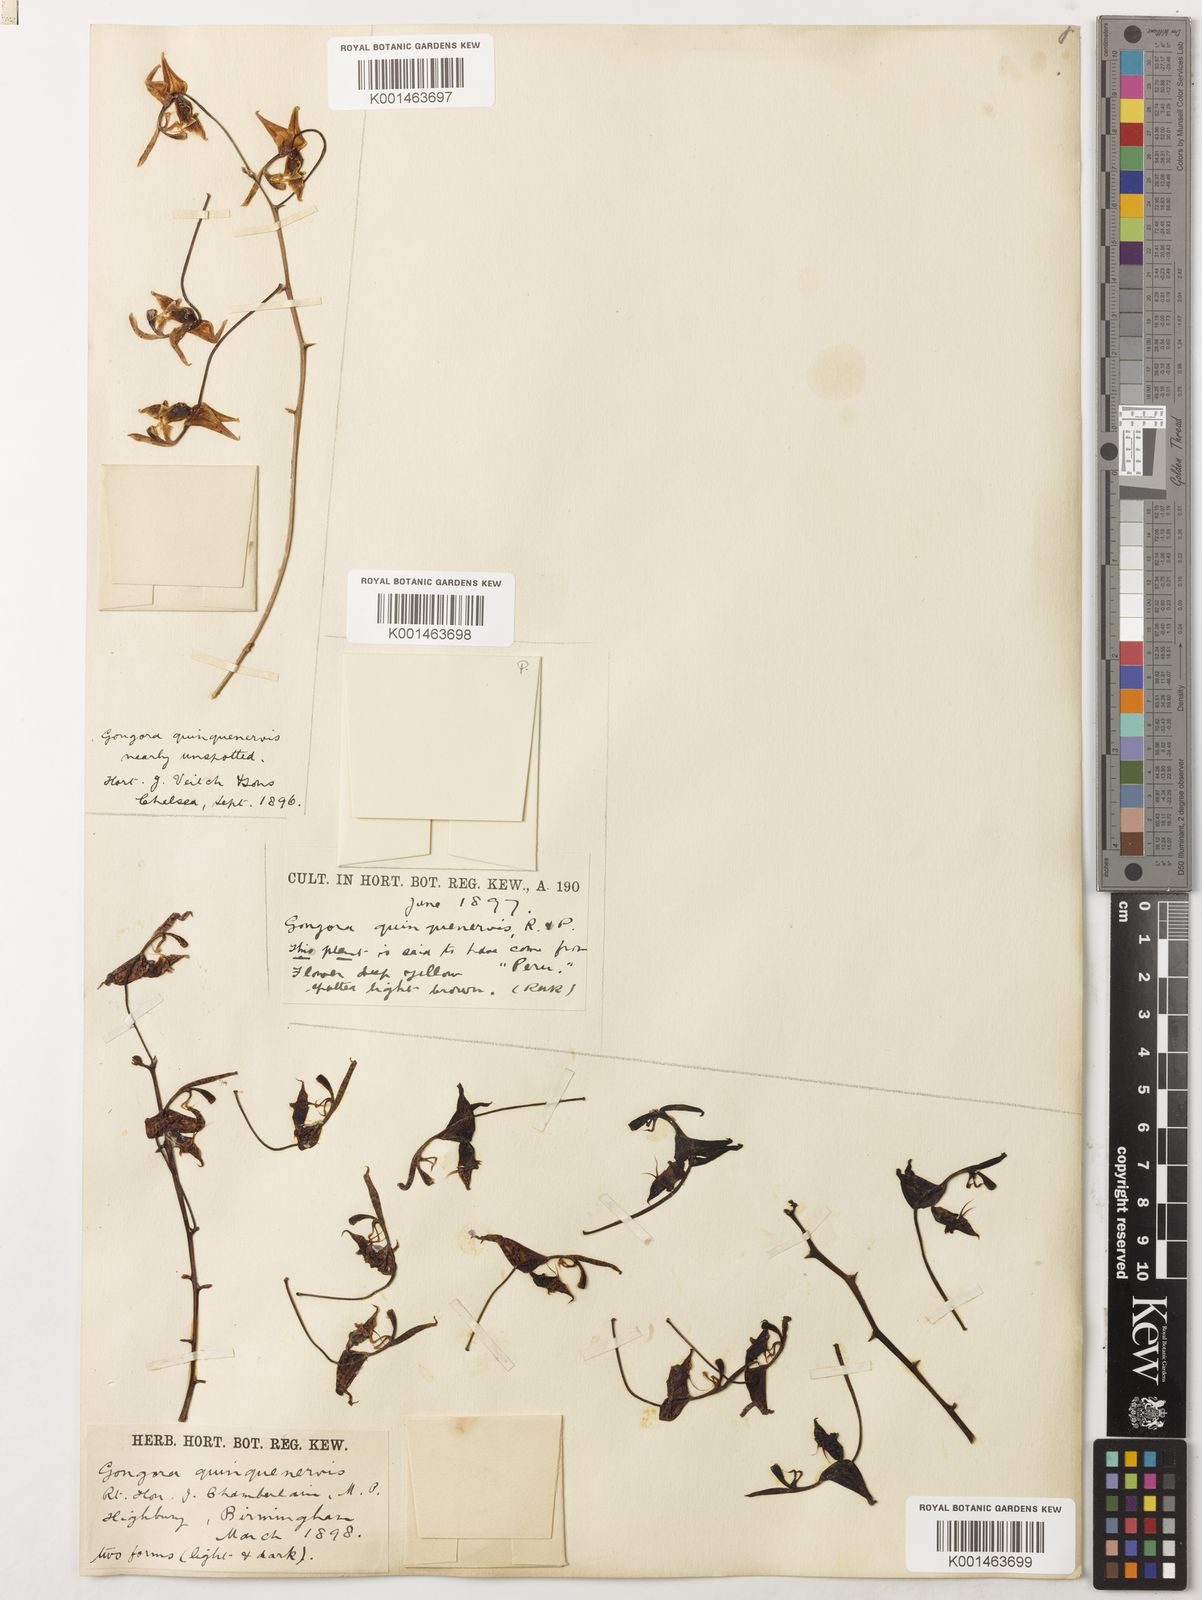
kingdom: Plantae
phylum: Tracheophyta
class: Liliopsida
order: Asparagales
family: Orchidaceae
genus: Gongora
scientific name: Gongora quinquenervis
